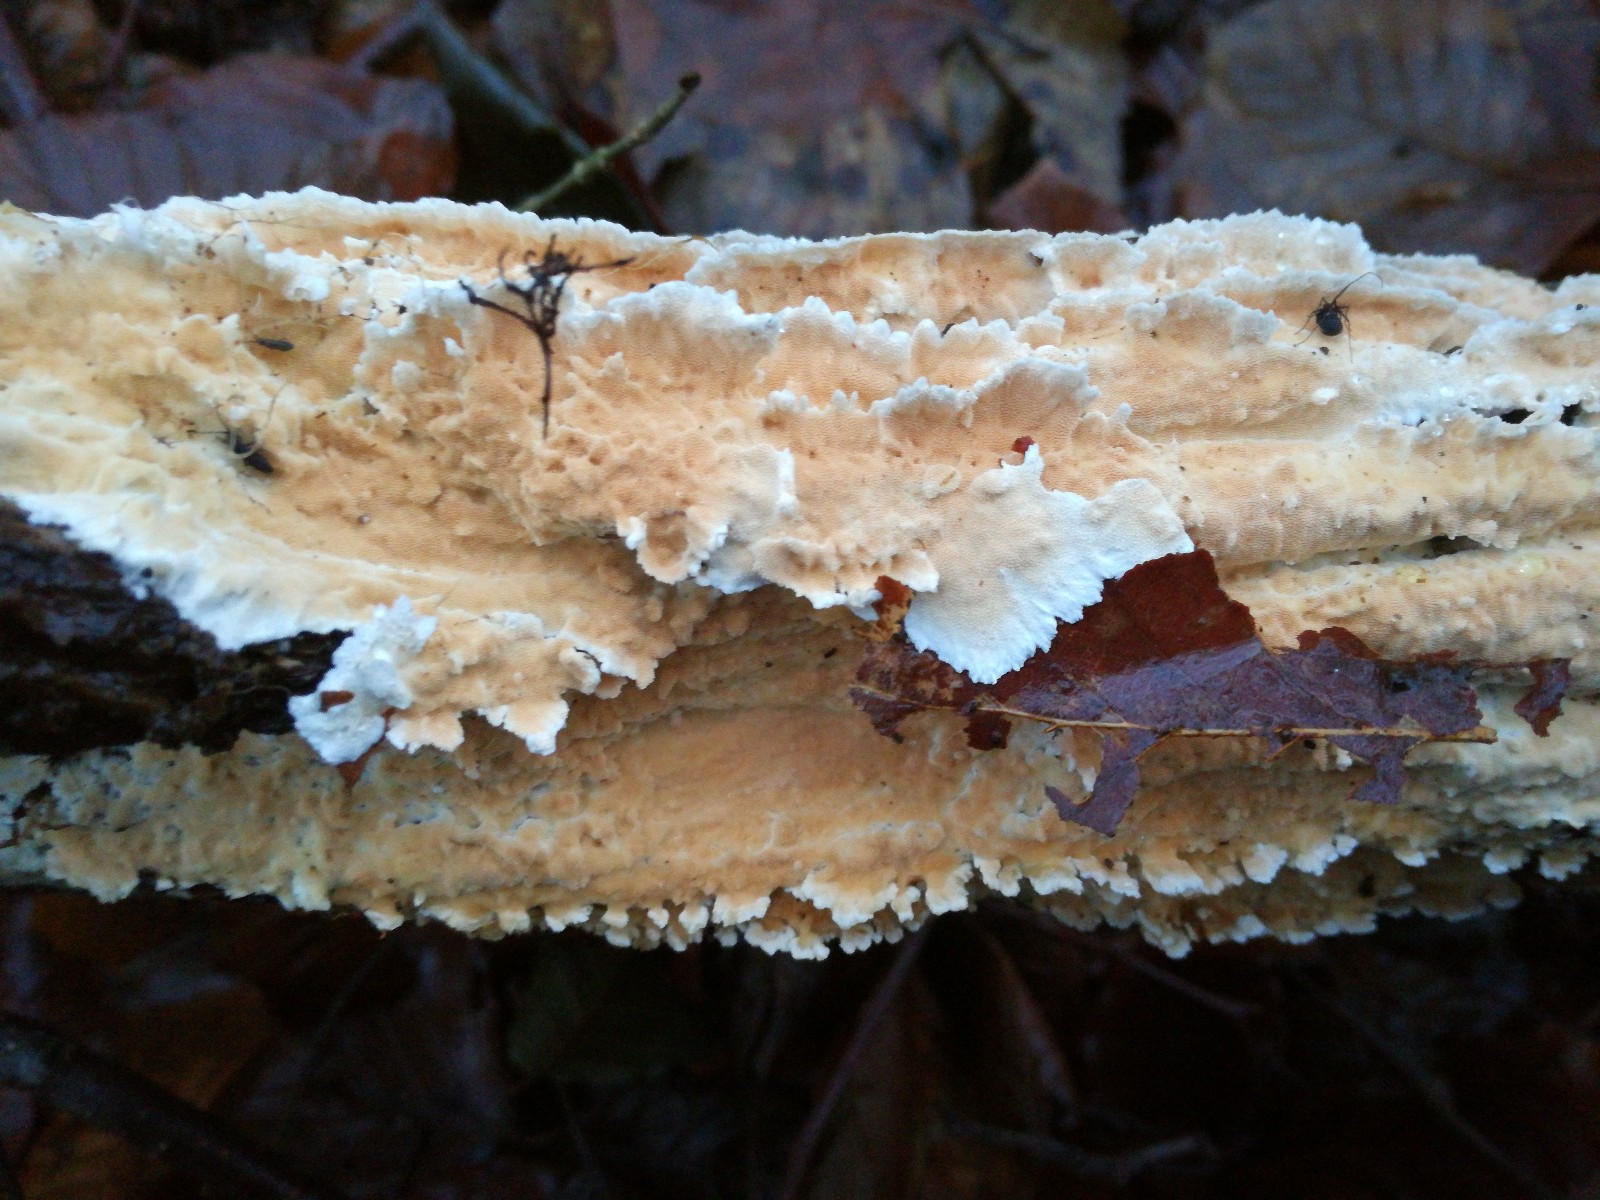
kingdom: Fungi
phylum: Basidiomycota
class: Agaricomycetes
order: Polyporales
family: Steccherinaceae
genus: Steccherinum
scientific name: Steccherinum ochraceum
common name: almindelig skønpig
